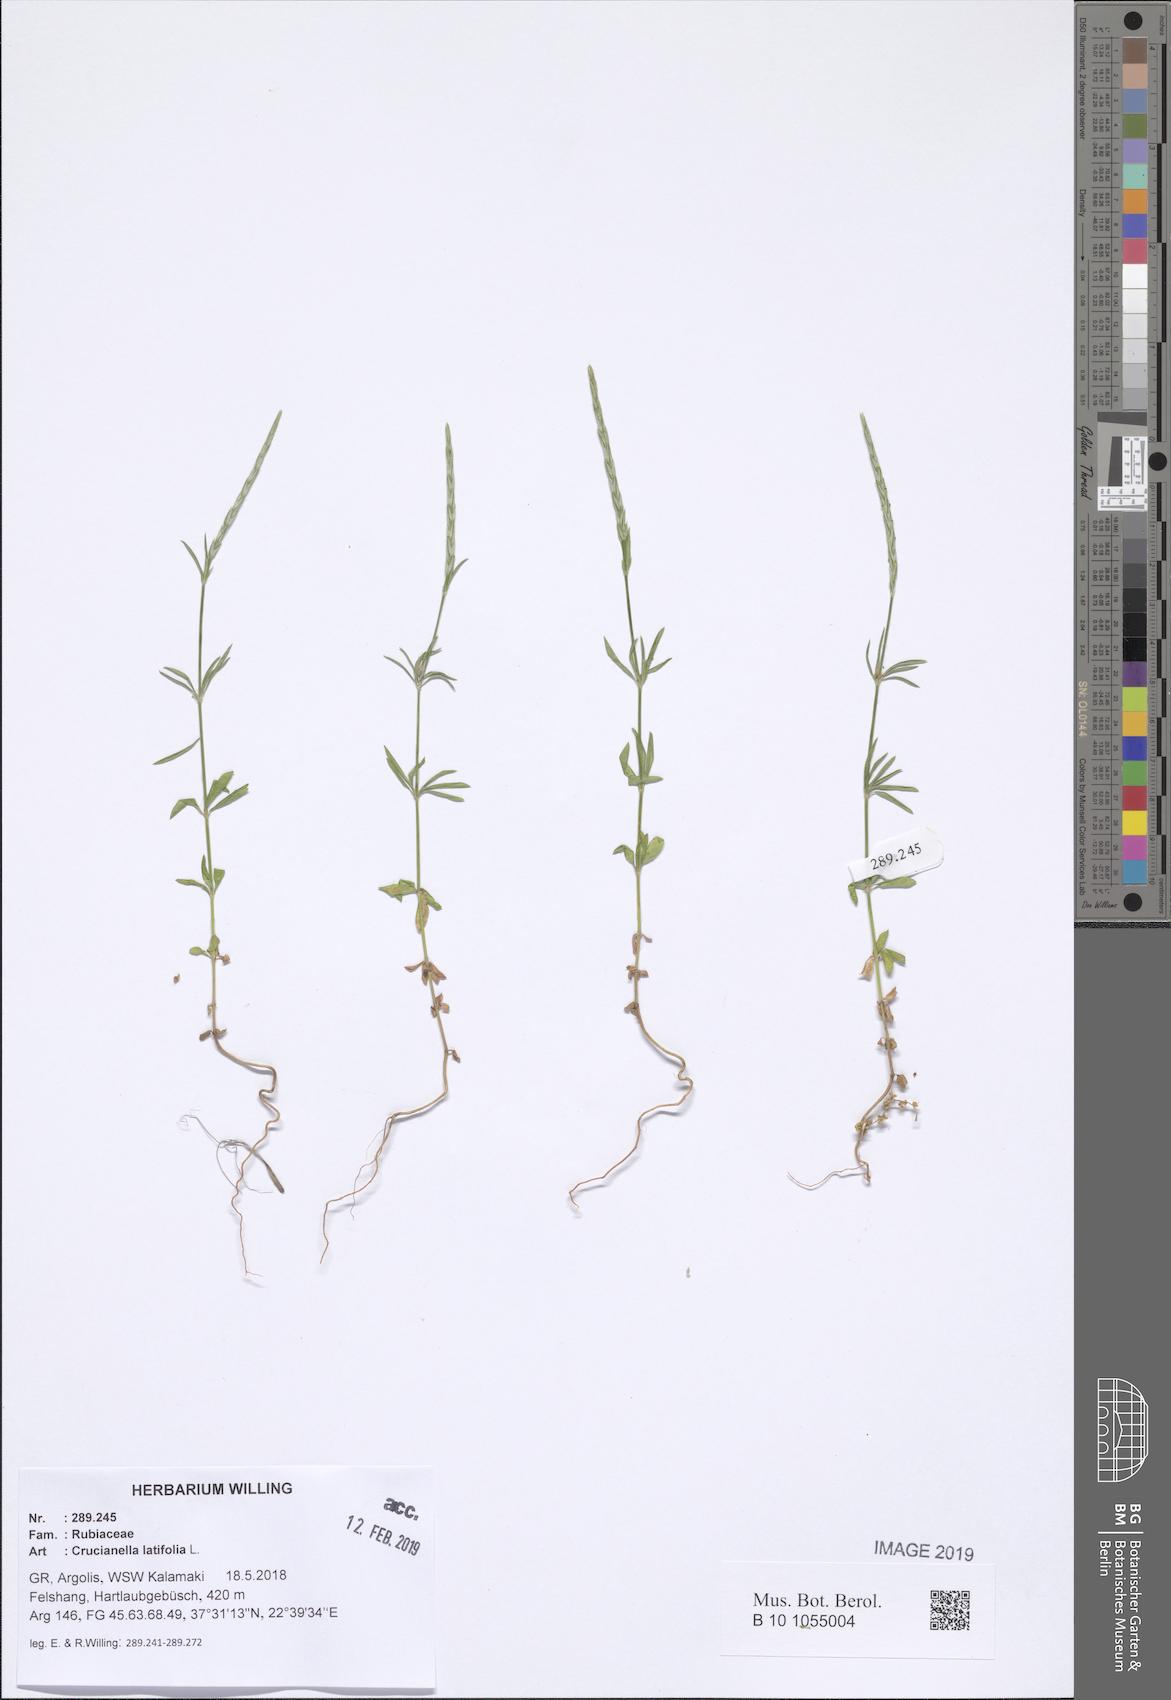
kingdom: Plantae
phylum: Tracheophyta
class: Magnoliopsida
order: Gentianales
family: Rubiaceae
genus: Crucianella
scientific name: Crucianella latifolia
